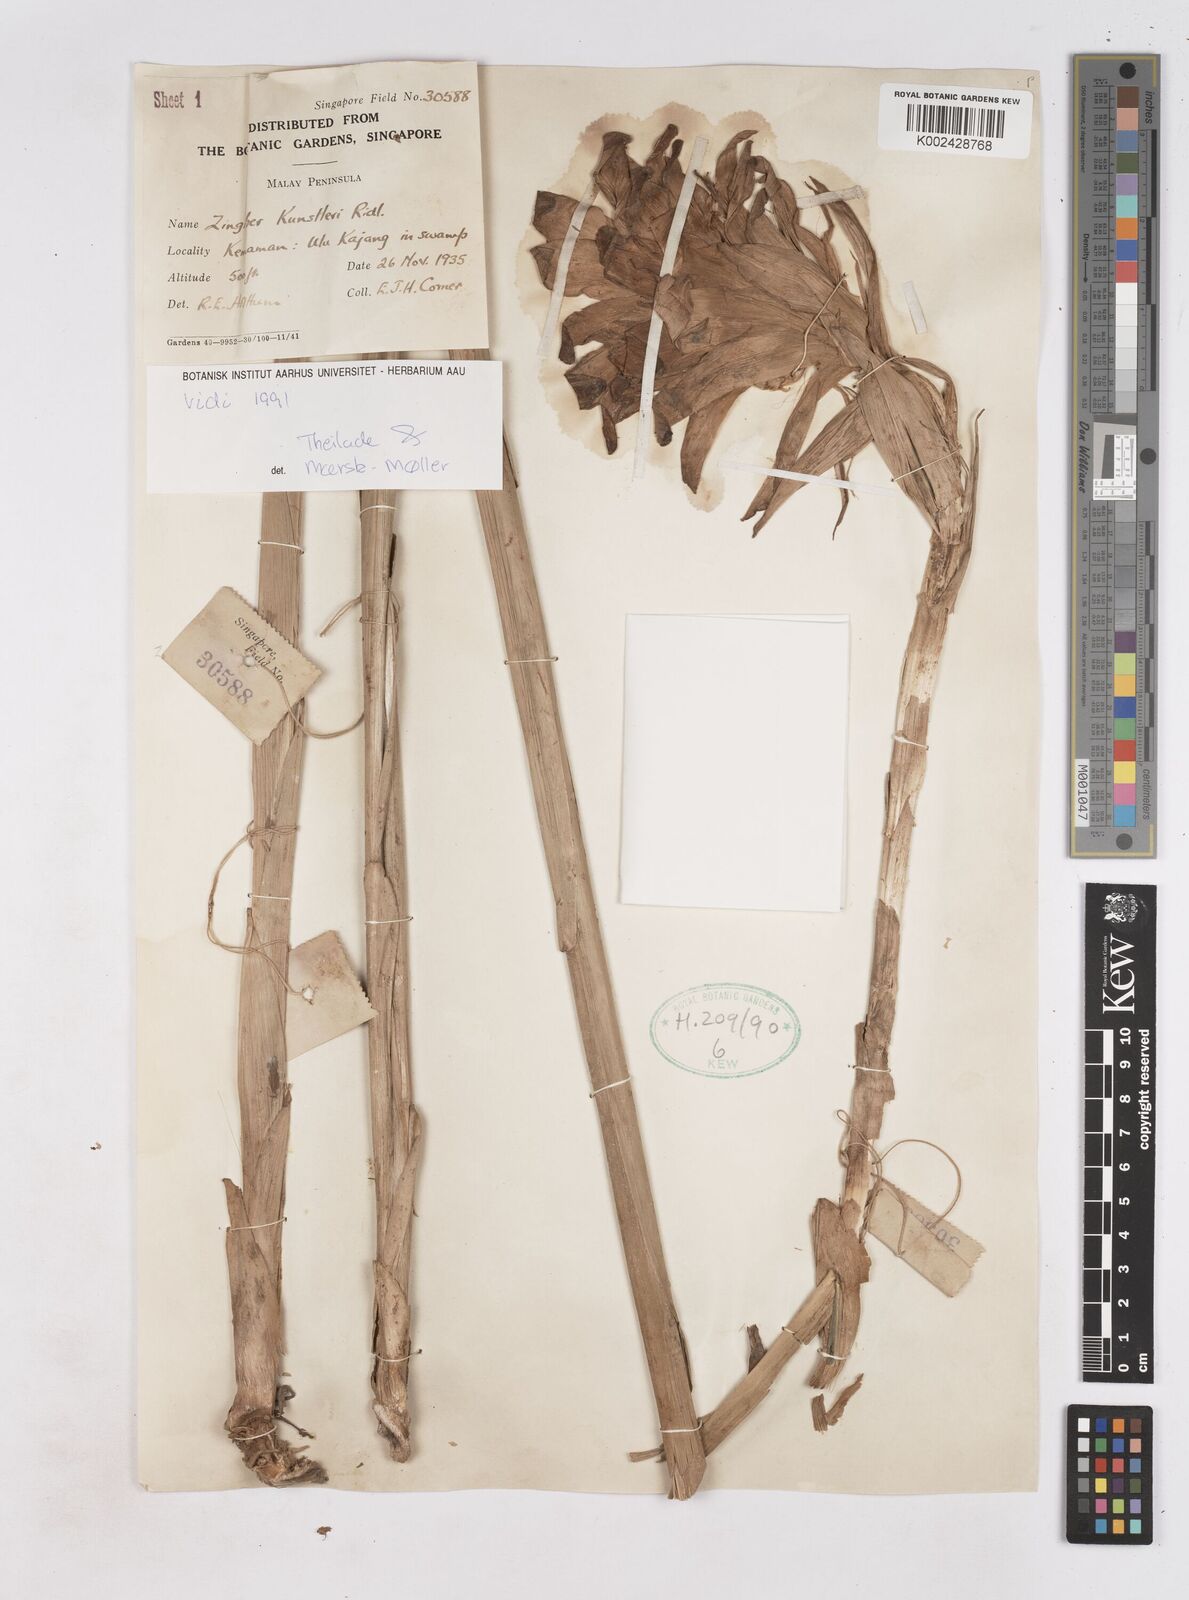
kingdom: Plantae
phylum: Tracheophyta
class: Liliopsida
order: Zingiberales
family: Zingiberaceae
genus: Zingiber
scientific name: Zingiber kunstleri
